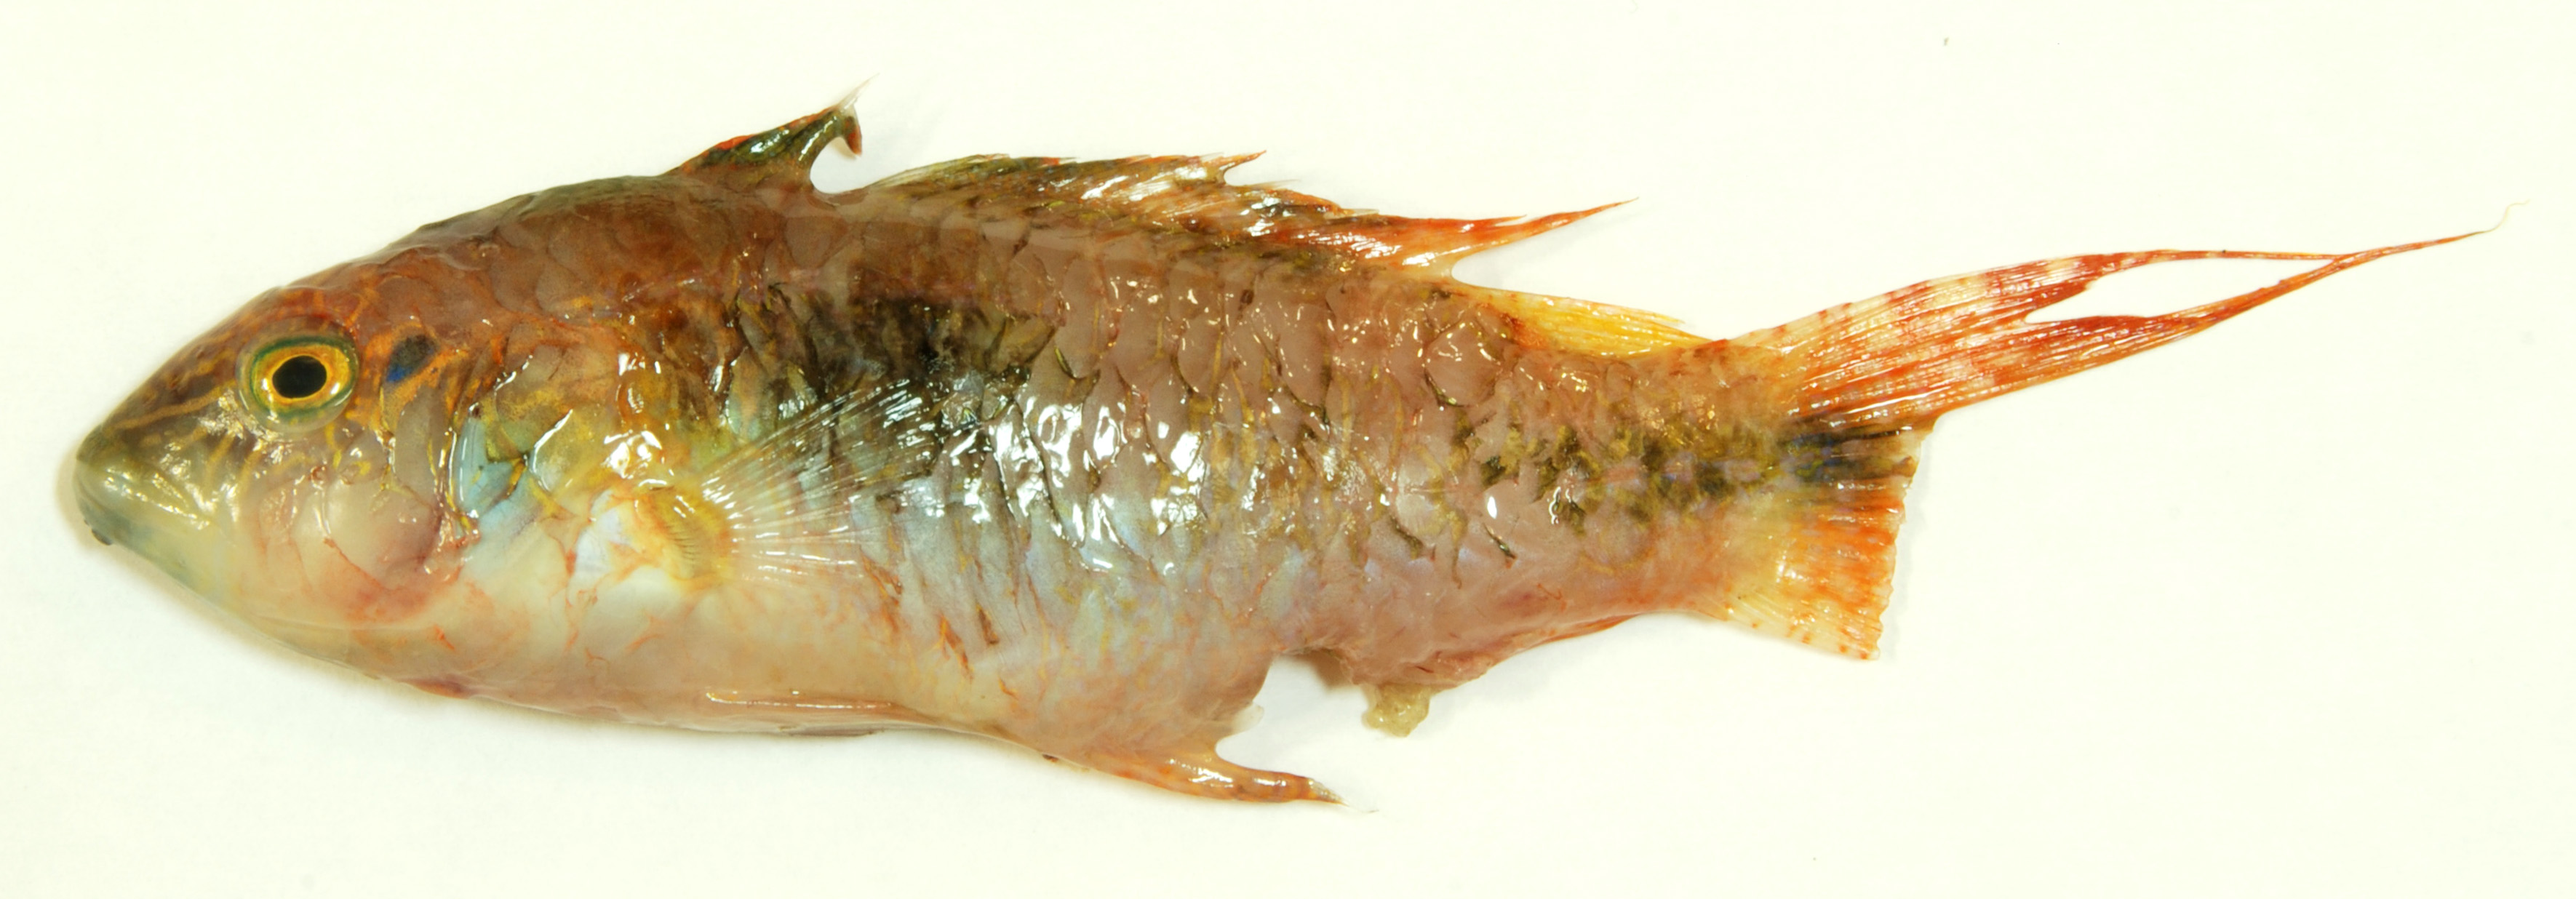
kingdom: Animalia
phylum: Chordata
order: Perciformes
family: Labridae
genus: Oxycheilinus
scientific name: Oxycheilinus bimaculatus
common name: Comettailed wrasse
